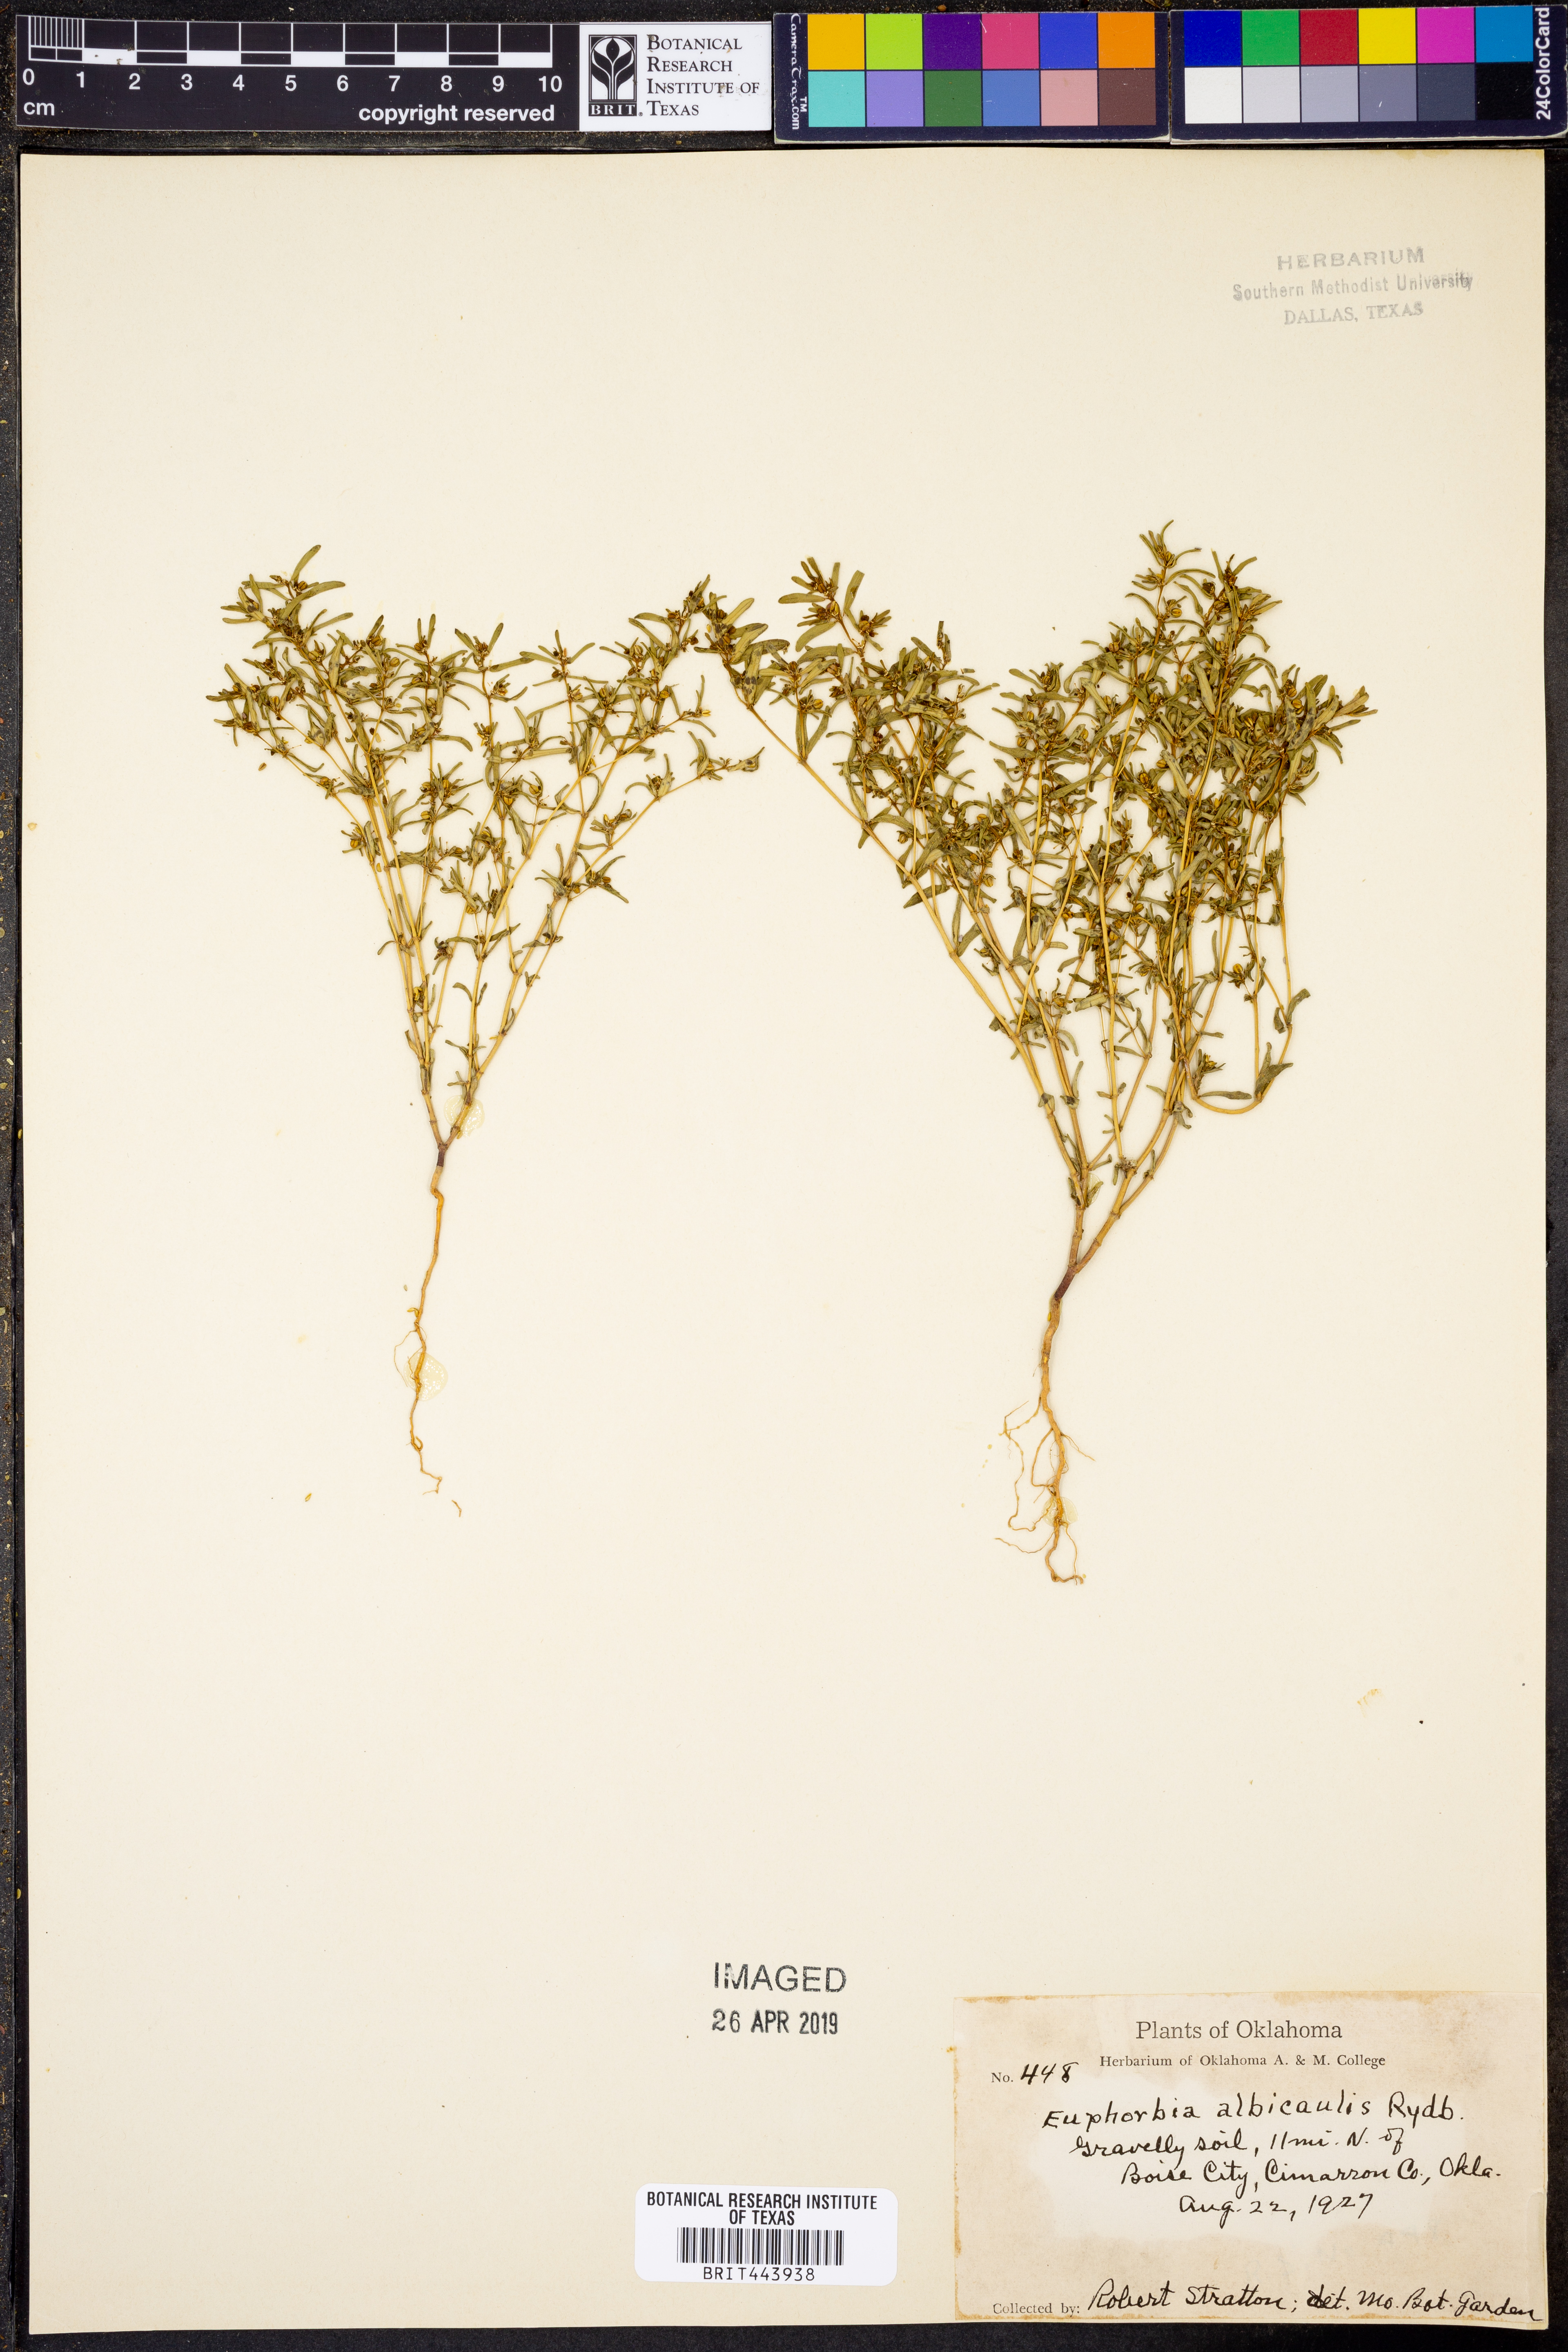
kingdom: Plantae
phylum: Tracheophyta
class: Magnoliopsida
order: Malpighiales
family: Euphorbiaceae
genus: Euphorbia
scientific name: Euphorbia serpillifolia
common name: Thyme-leaf spurge
